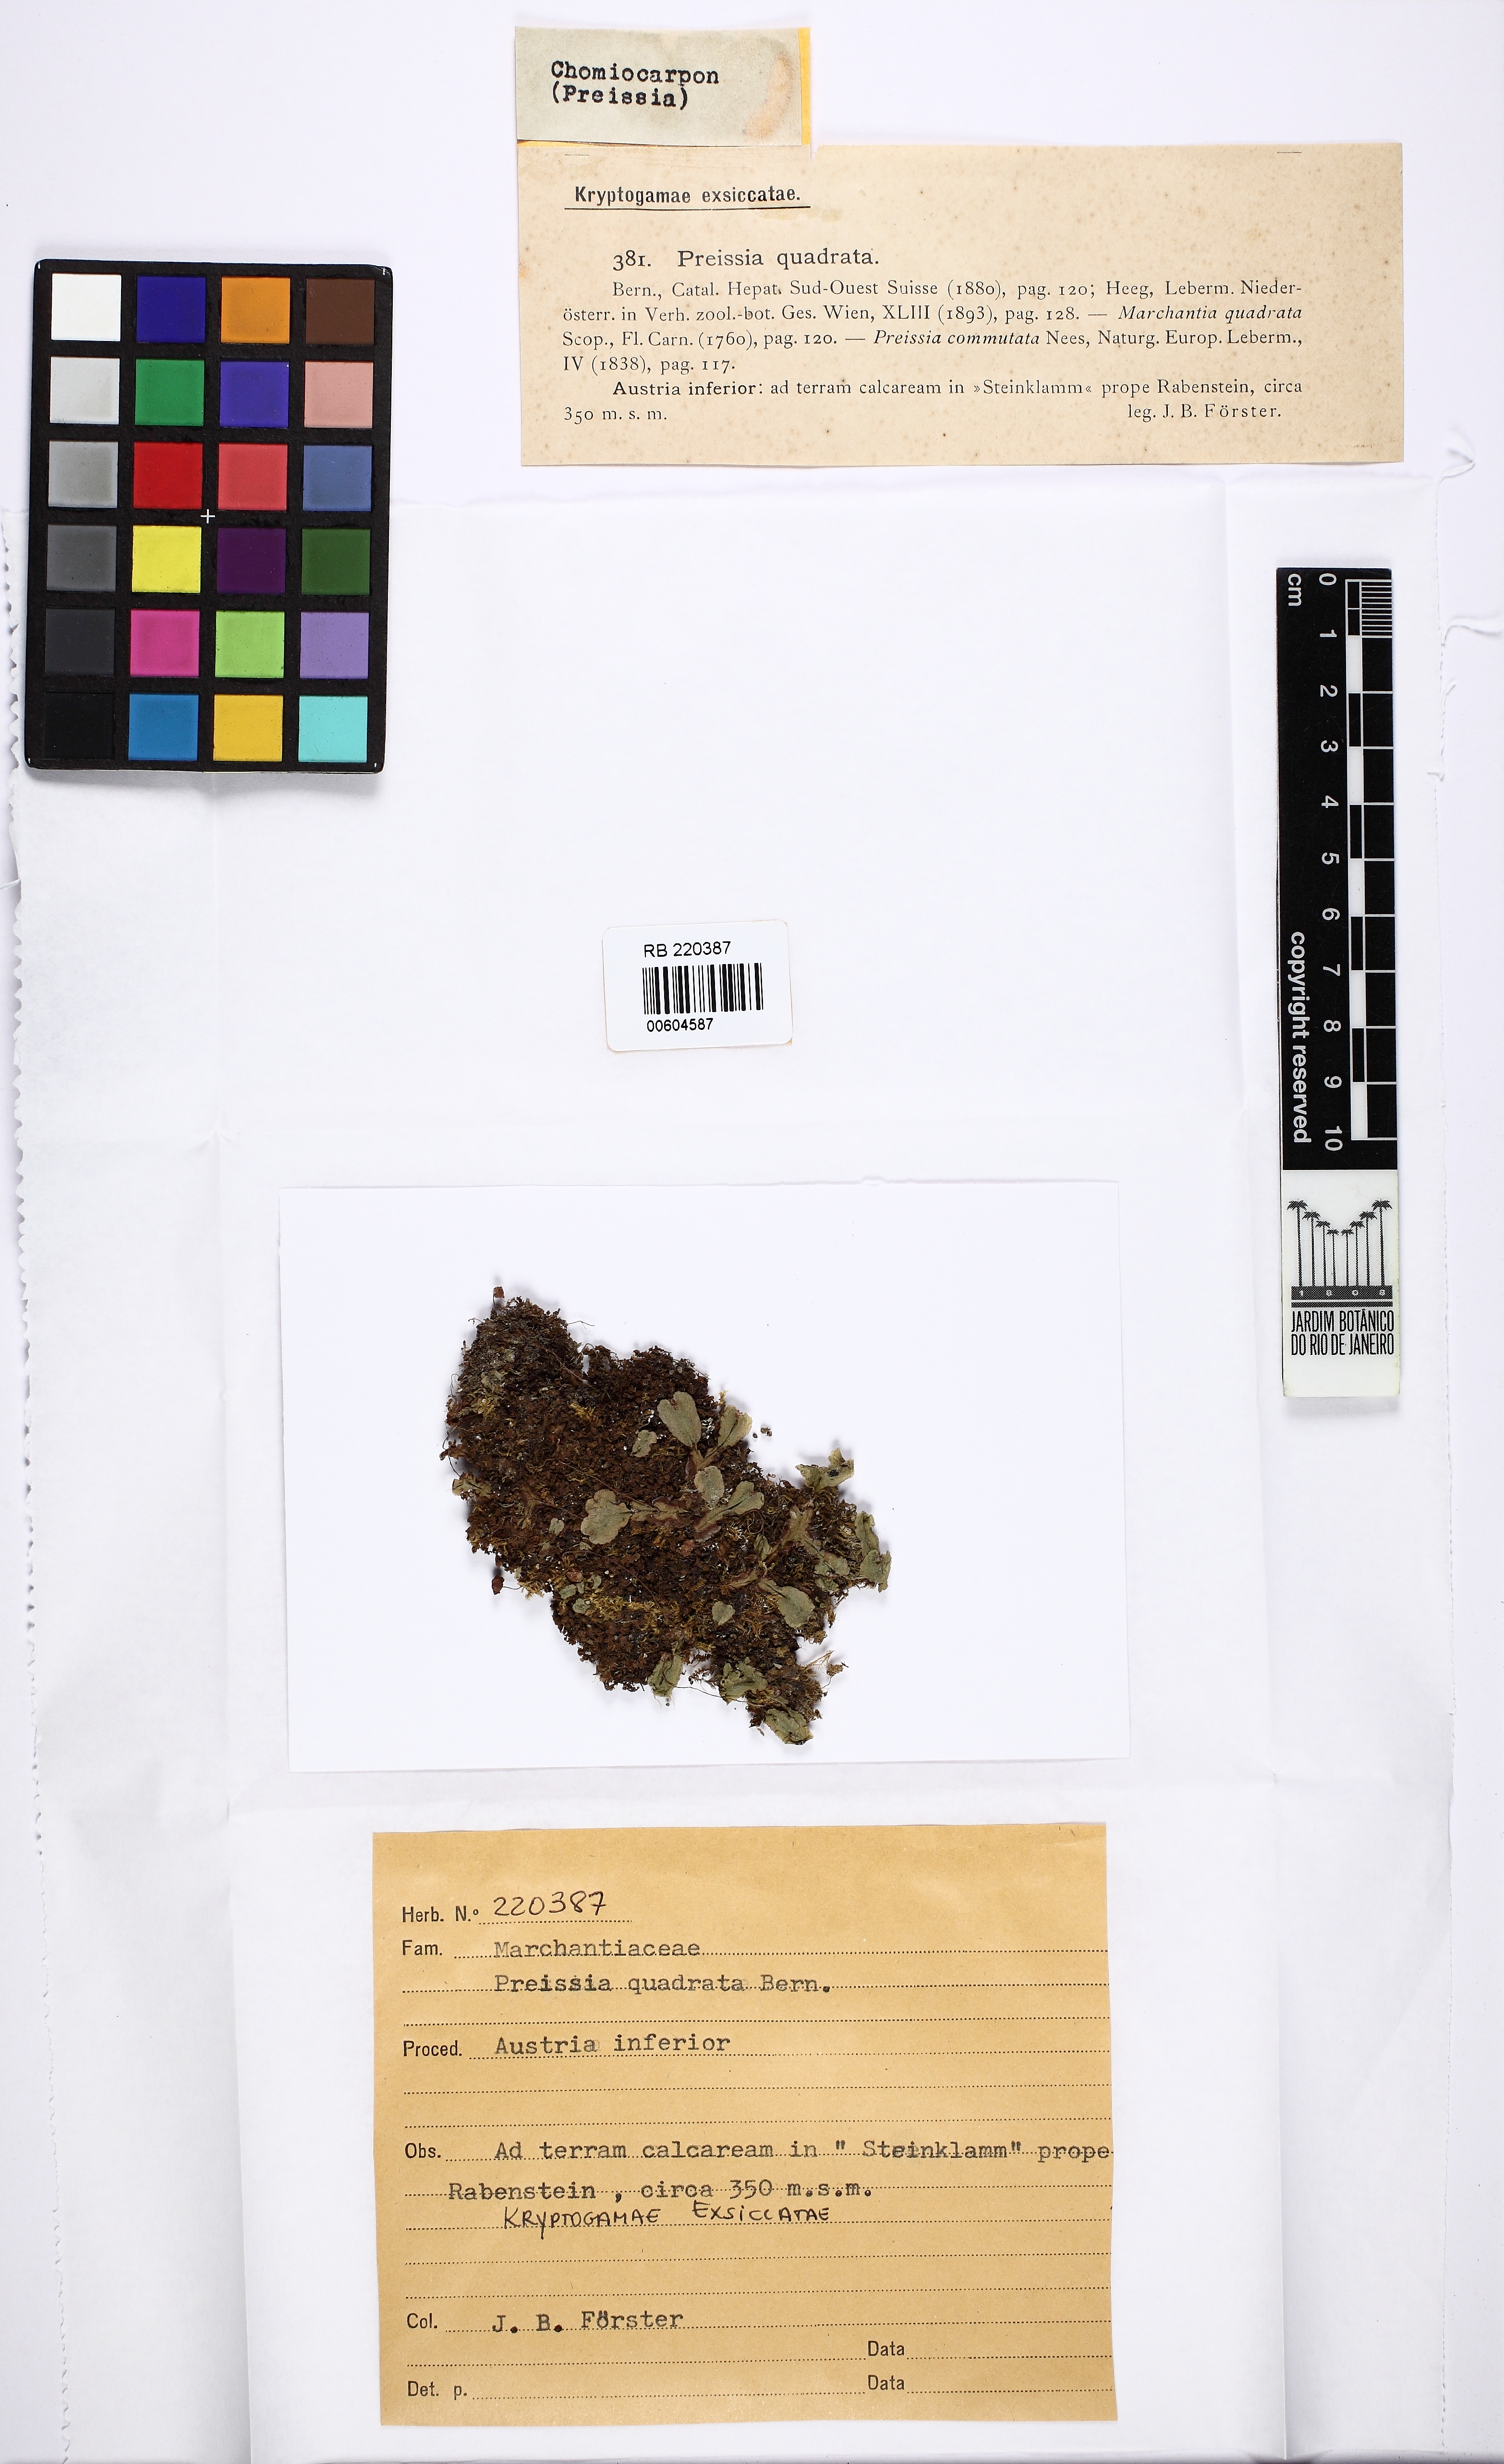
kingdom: Plantae
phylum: Marchantiophyta
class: Marchantiopsida
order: Marchantiales
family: Marchantiaceae
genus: Marchantia
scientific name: Marchantia quadrata
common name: Narrow mushroom-headed liverwort
